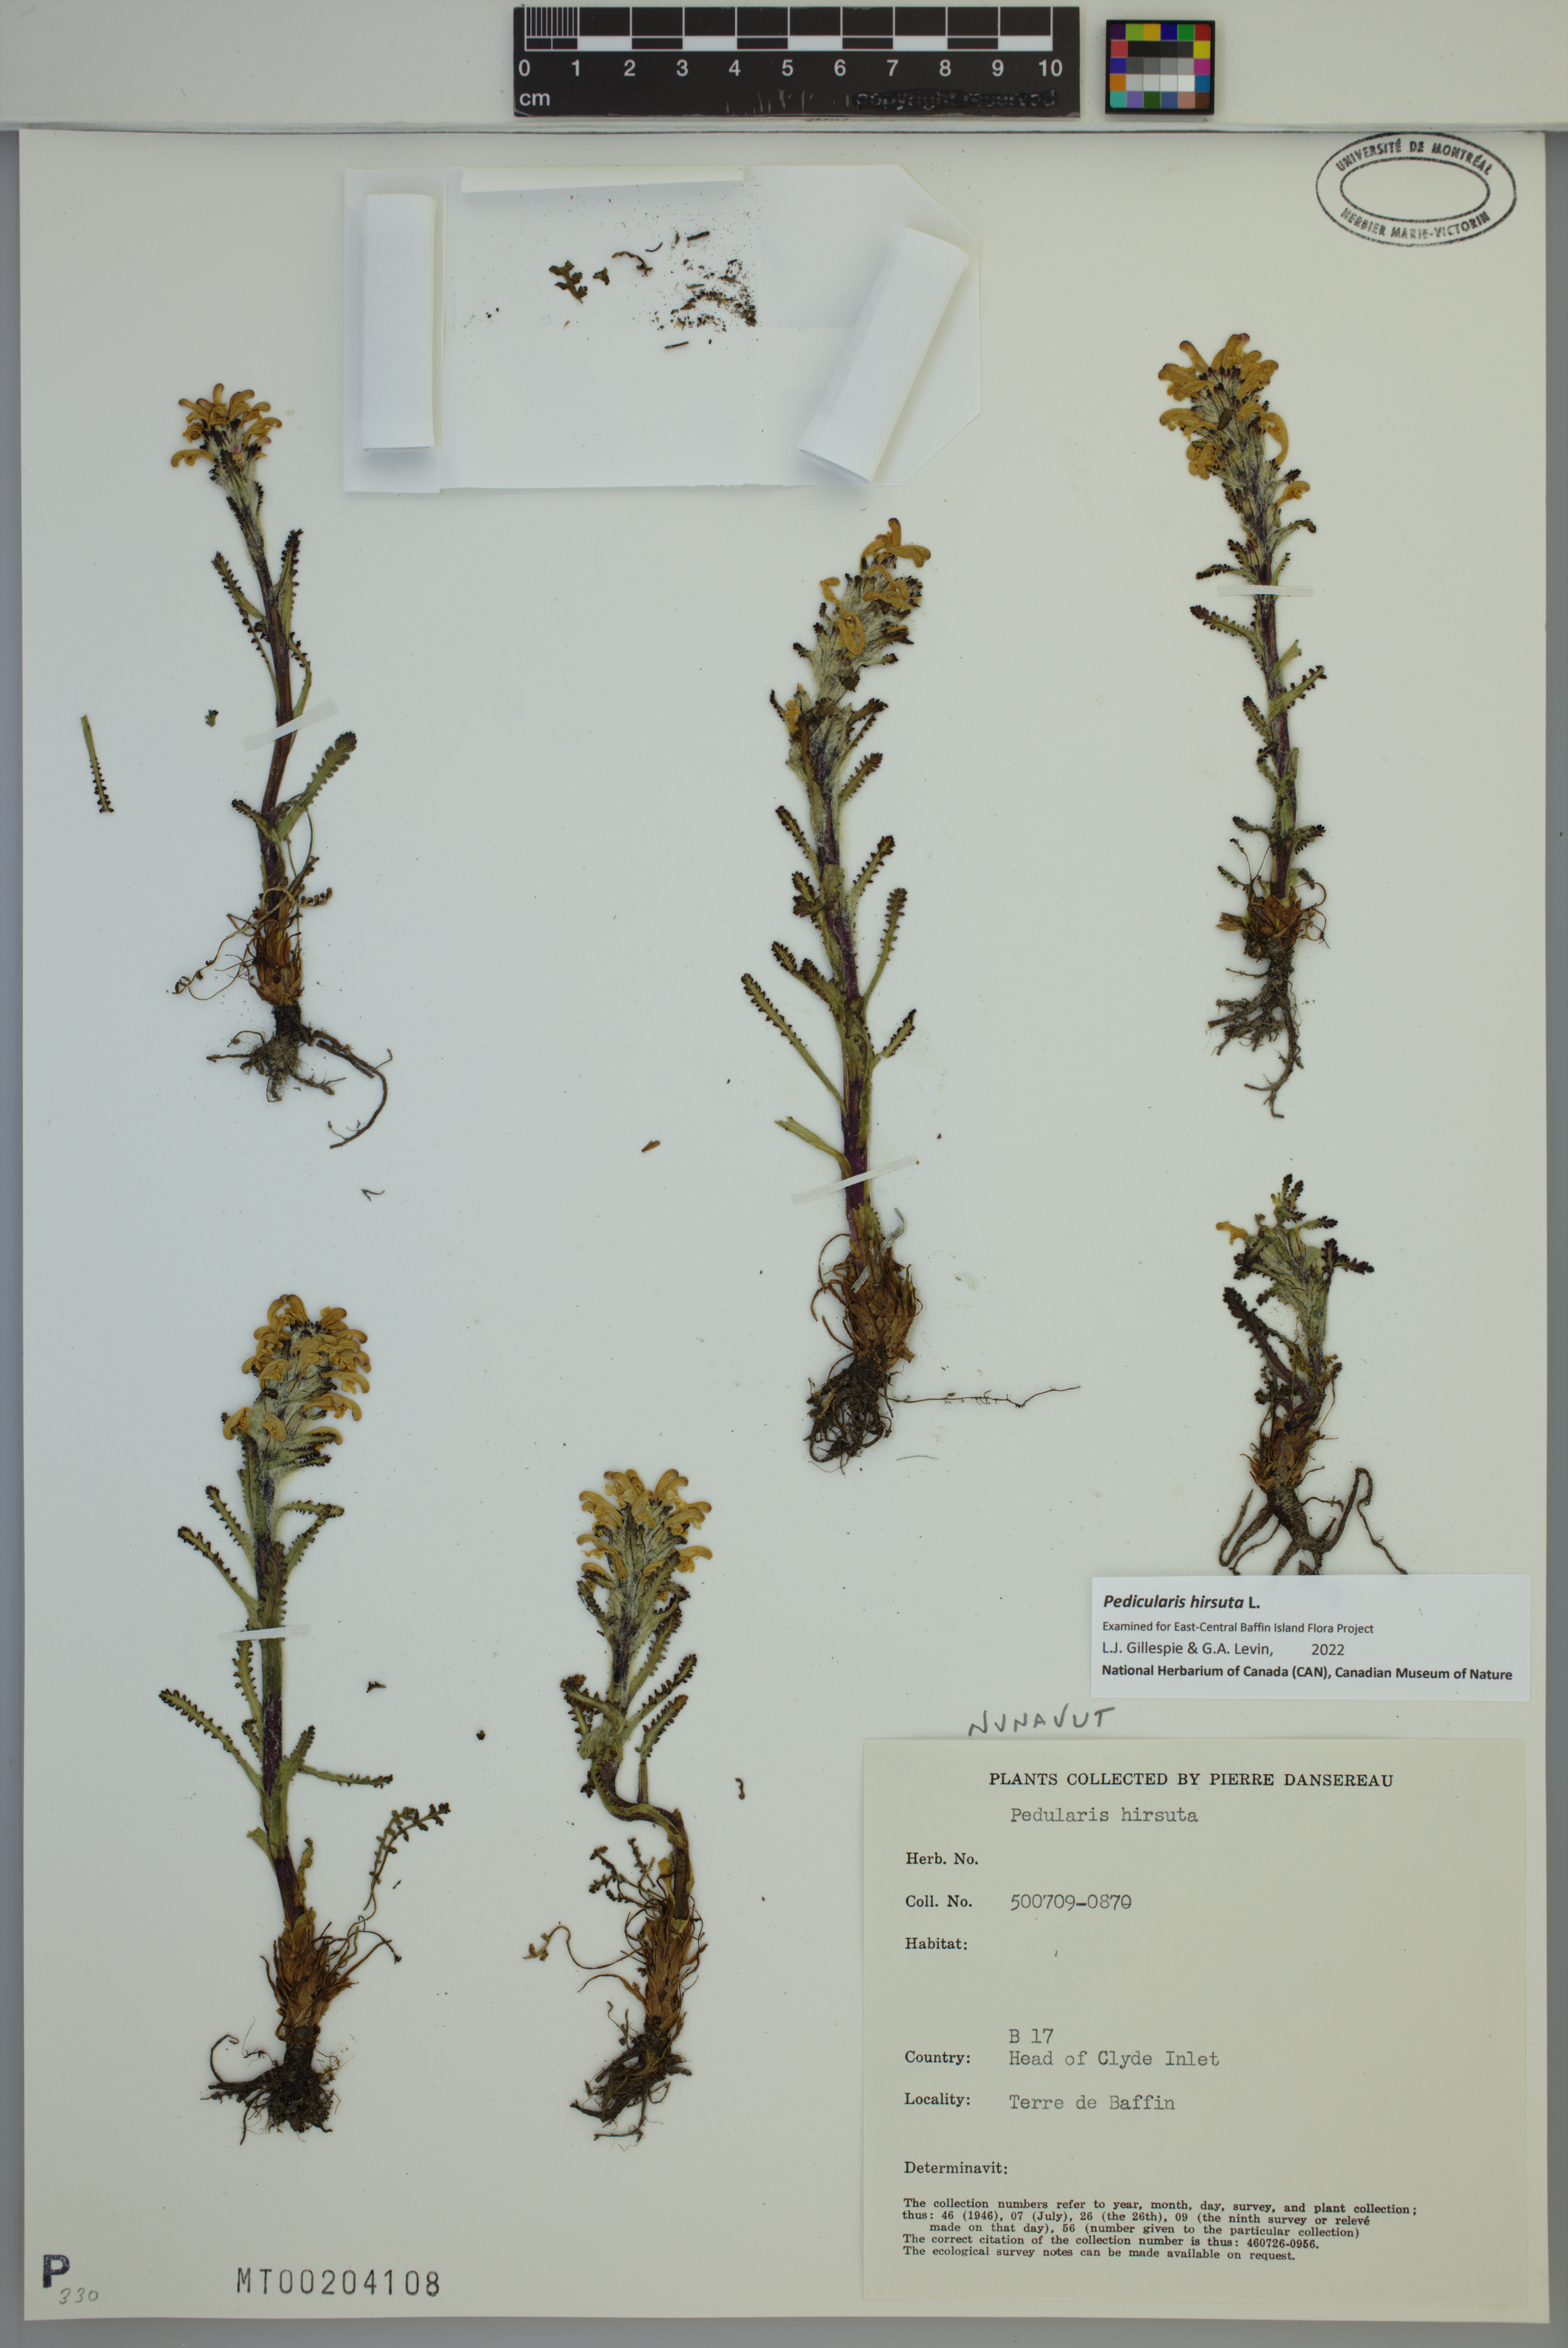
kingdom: Plantae
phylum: Tracheophyta
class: Magnoliopsida
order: Lamiales
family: Orobanchaceae
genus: Pedicularis
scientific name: Pedicularis hirsuta
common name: Hairy lousewort
